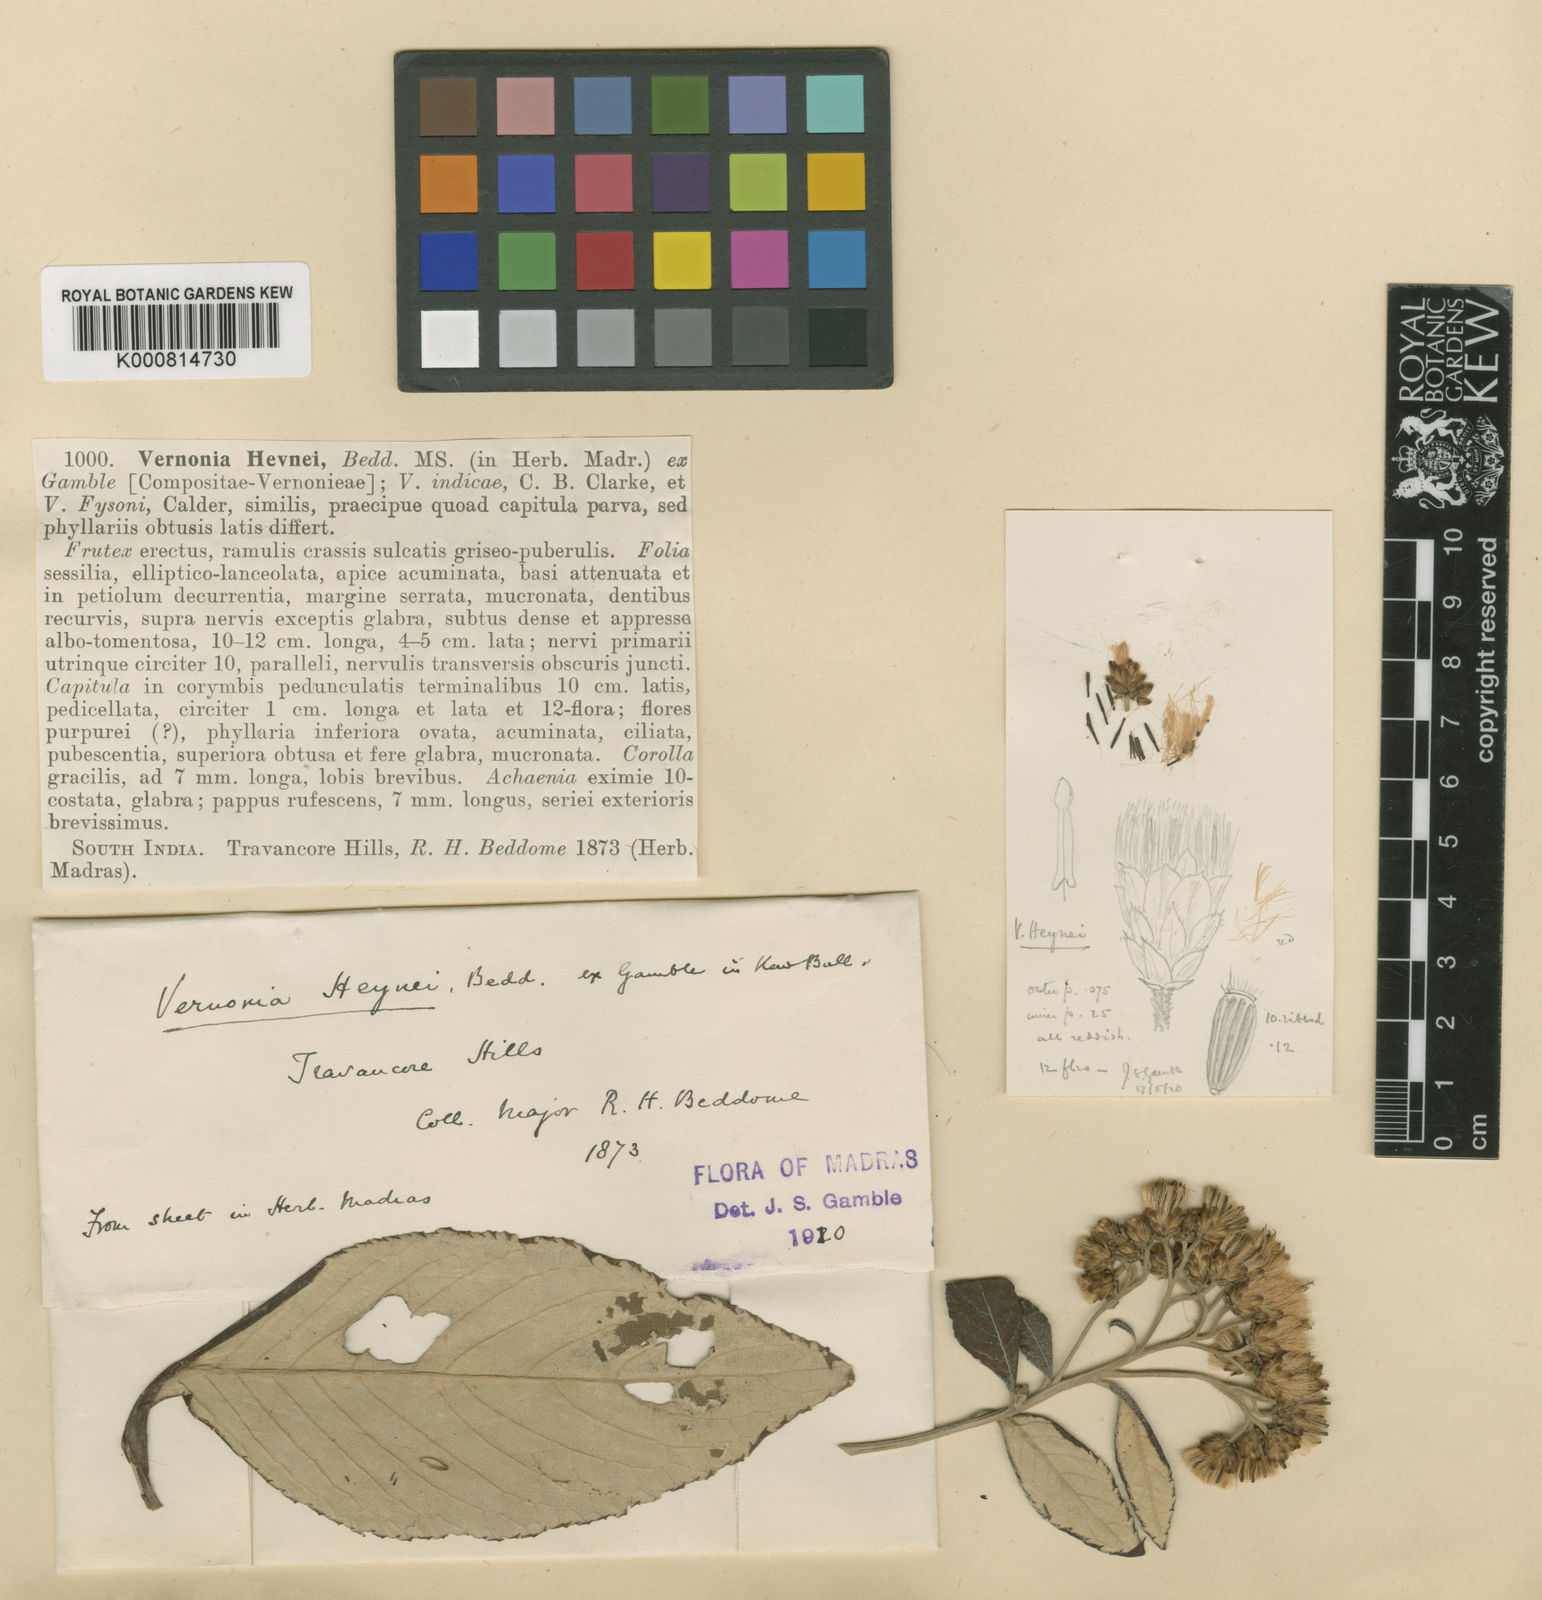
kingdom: Plantae
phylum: Tracheophyta
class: Magnoliopsida
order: Asterales
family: Asteraceae
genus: Acilepis
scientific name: Acilepis heynei
